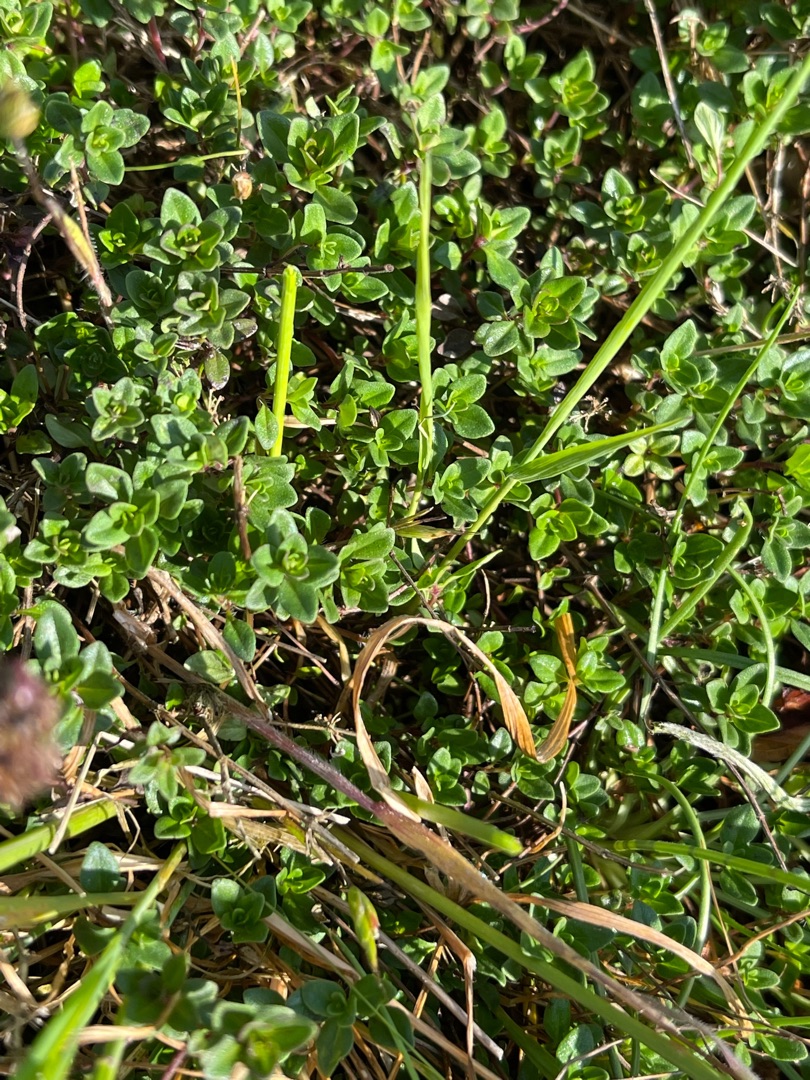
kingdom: Plantae
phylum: Tracheophyta
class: Magnoliopsida
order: Lamiales
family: Lamiaceae
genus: Thymus
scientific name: Thymus pulegioides
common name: Bredbladet timian
